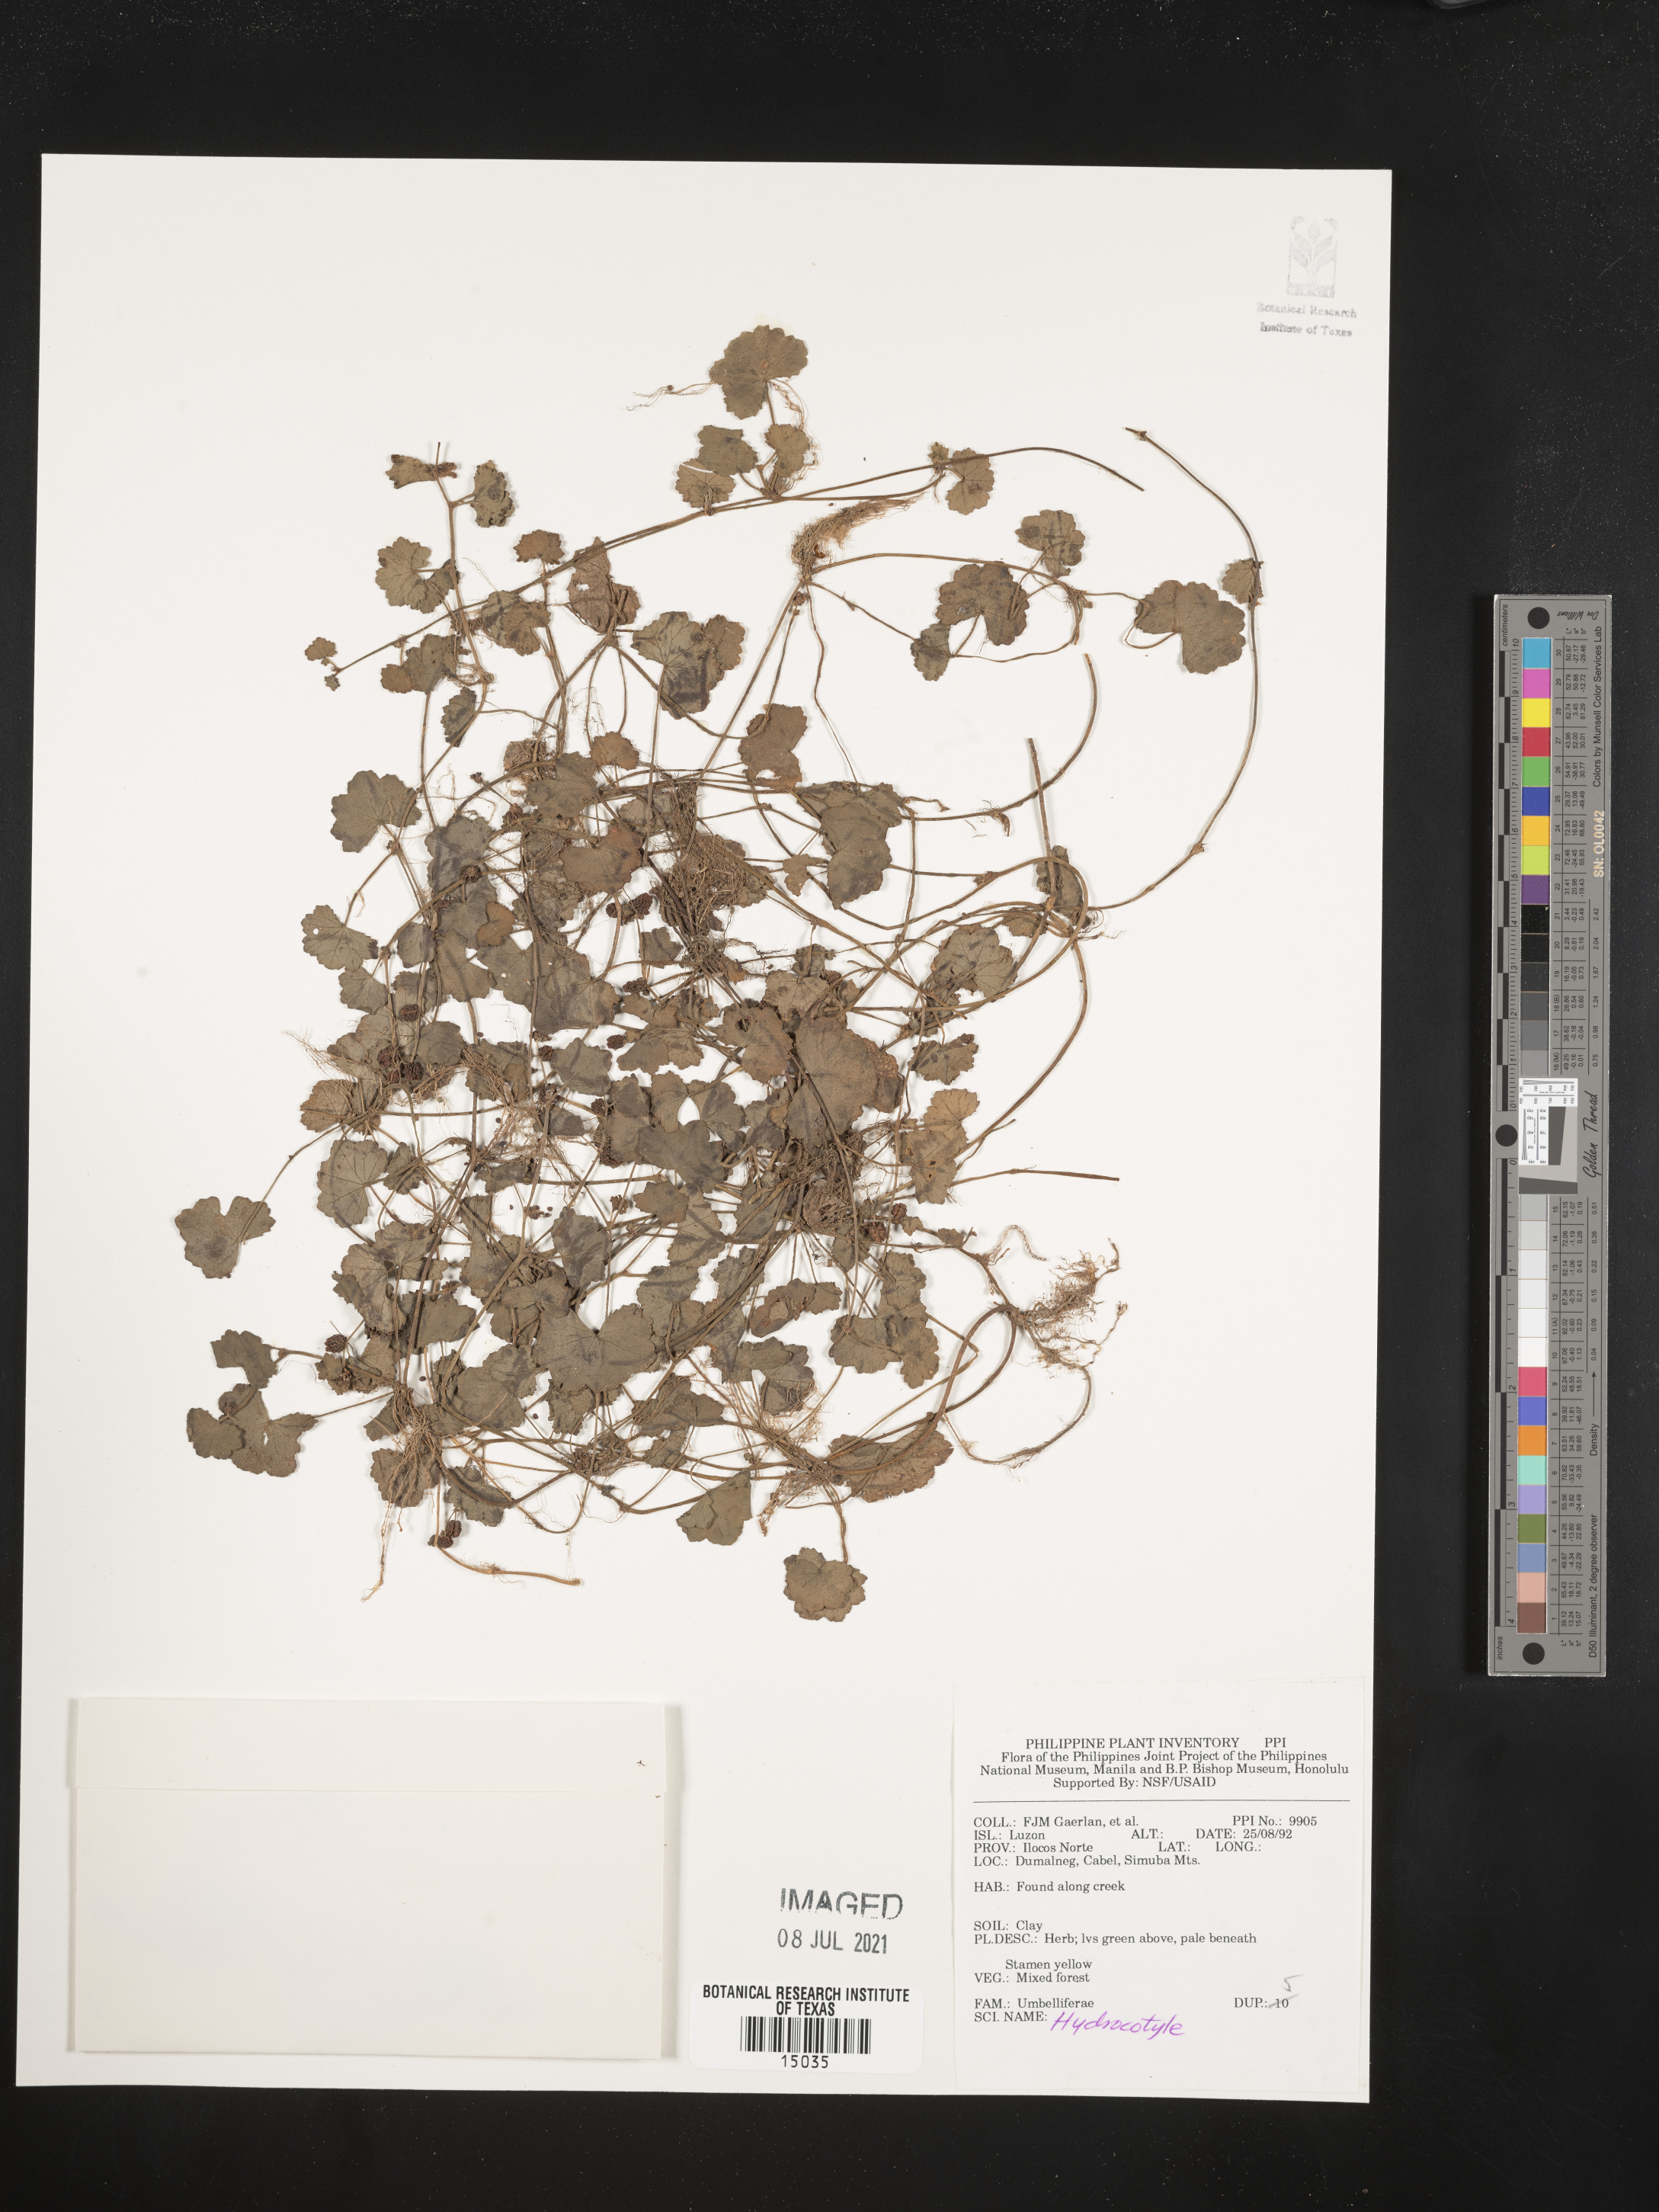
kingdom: Plantae
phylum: Tracheophyta
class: Magnoliopsida
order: Apiales
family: Araliaceae
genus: Hydrocotyle
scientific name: Hydrocotyle
